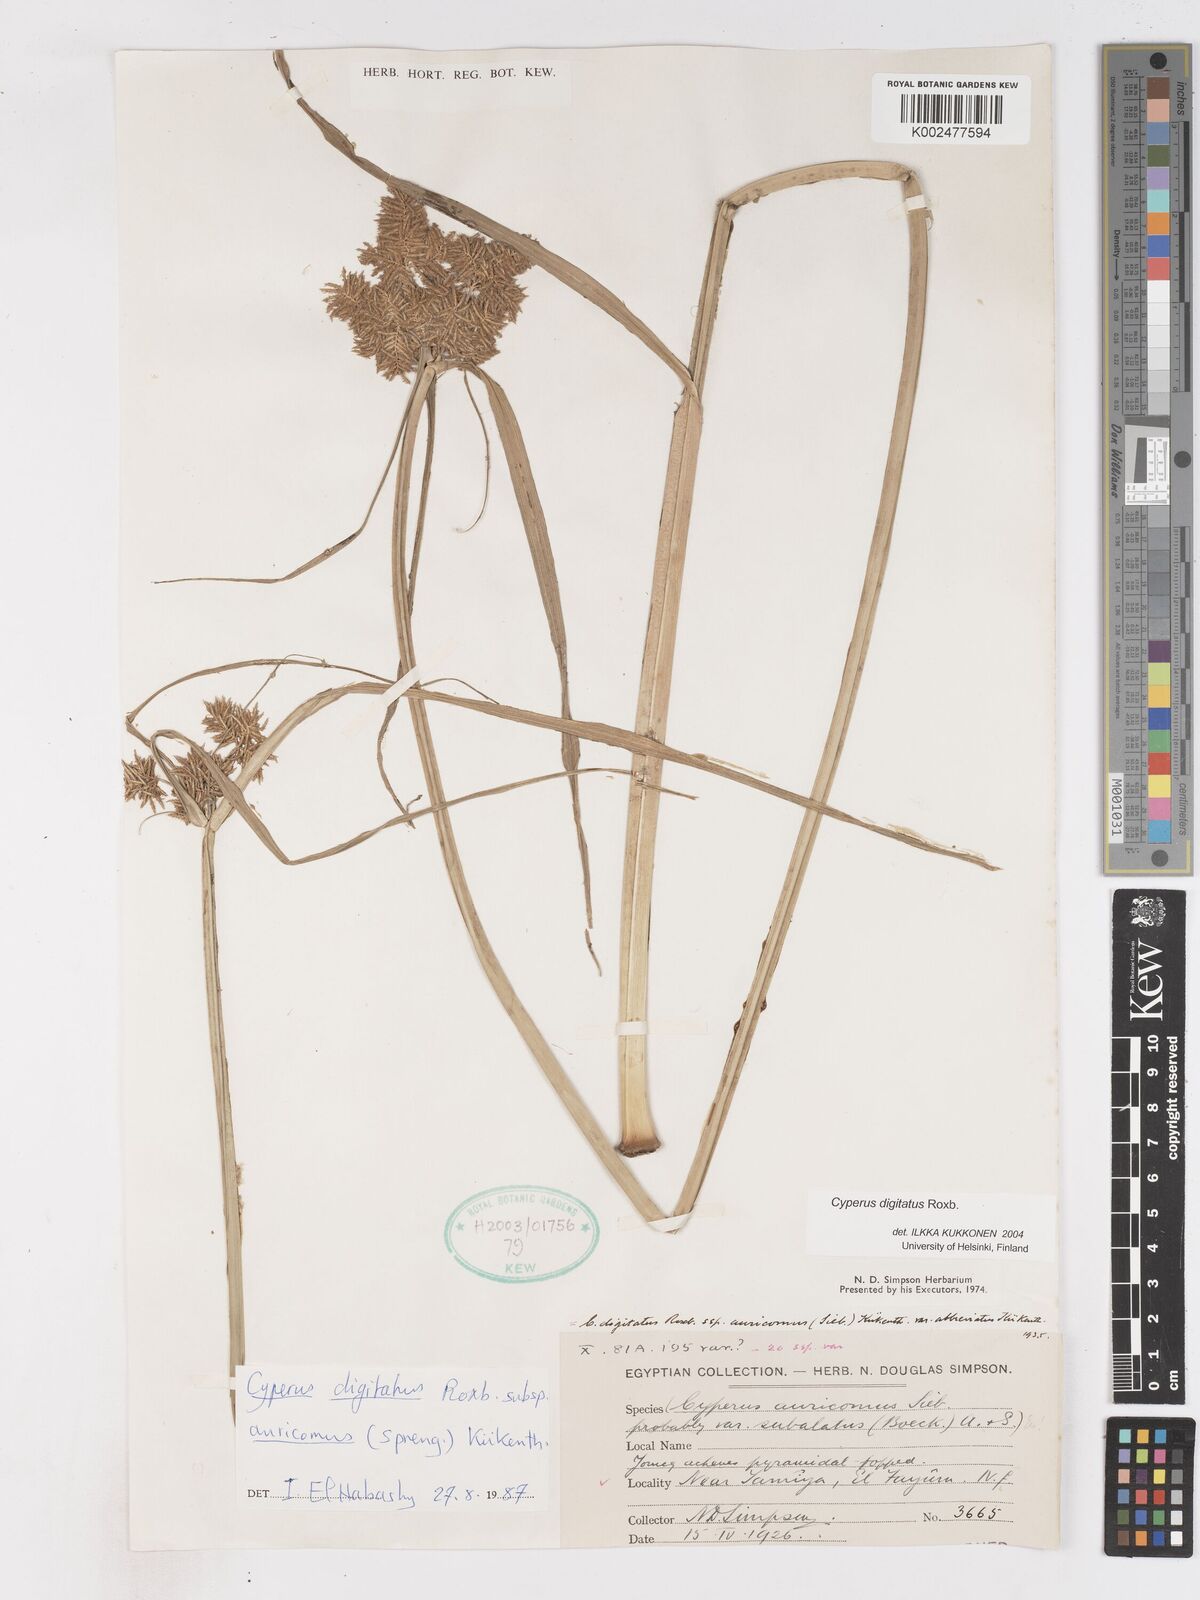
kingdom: Plantae
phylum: Tracheophyta
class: Liliopsida
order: Poales
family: Cyperaceae
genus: Cyperus
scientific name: Cyperus digitatus
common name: Finger flatsedge
